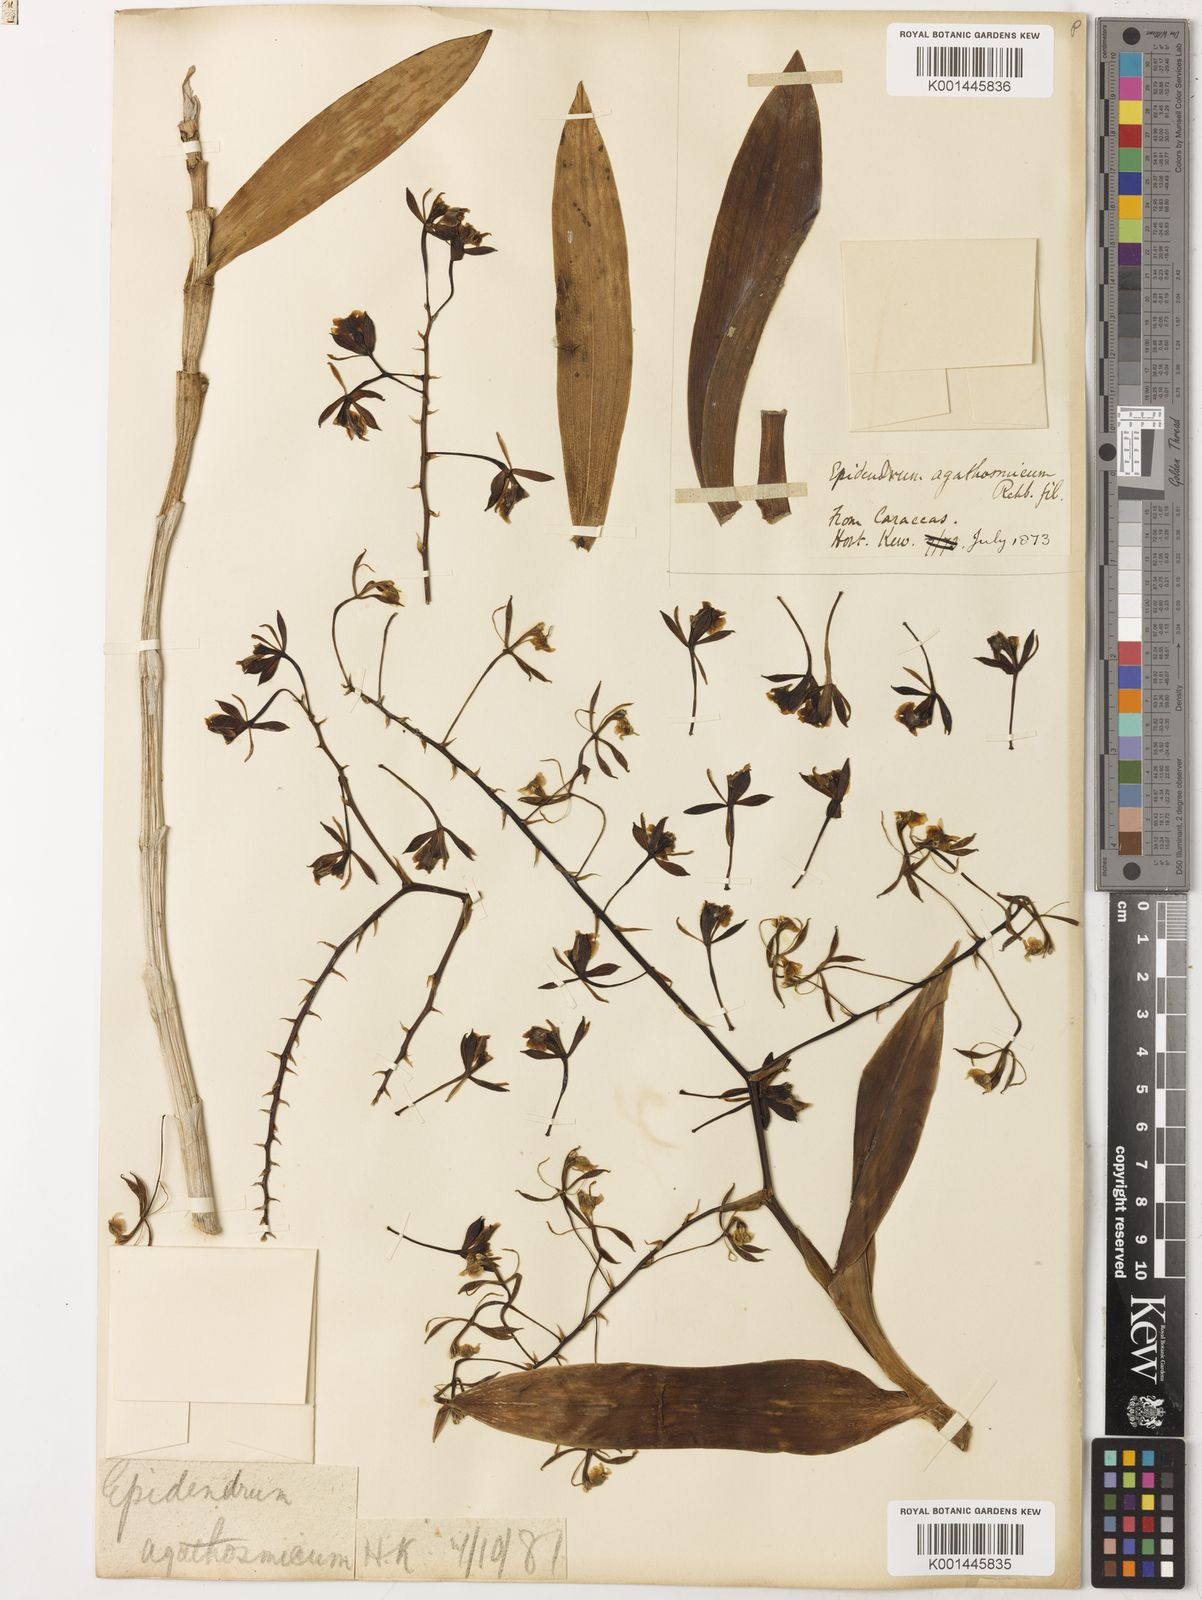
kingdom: Plantae
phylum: Tracheophyta
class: Liliopsida
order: Asparagales
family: Orchidaceae
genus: Epidendrum
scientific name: Epidendrum agathosmicum
